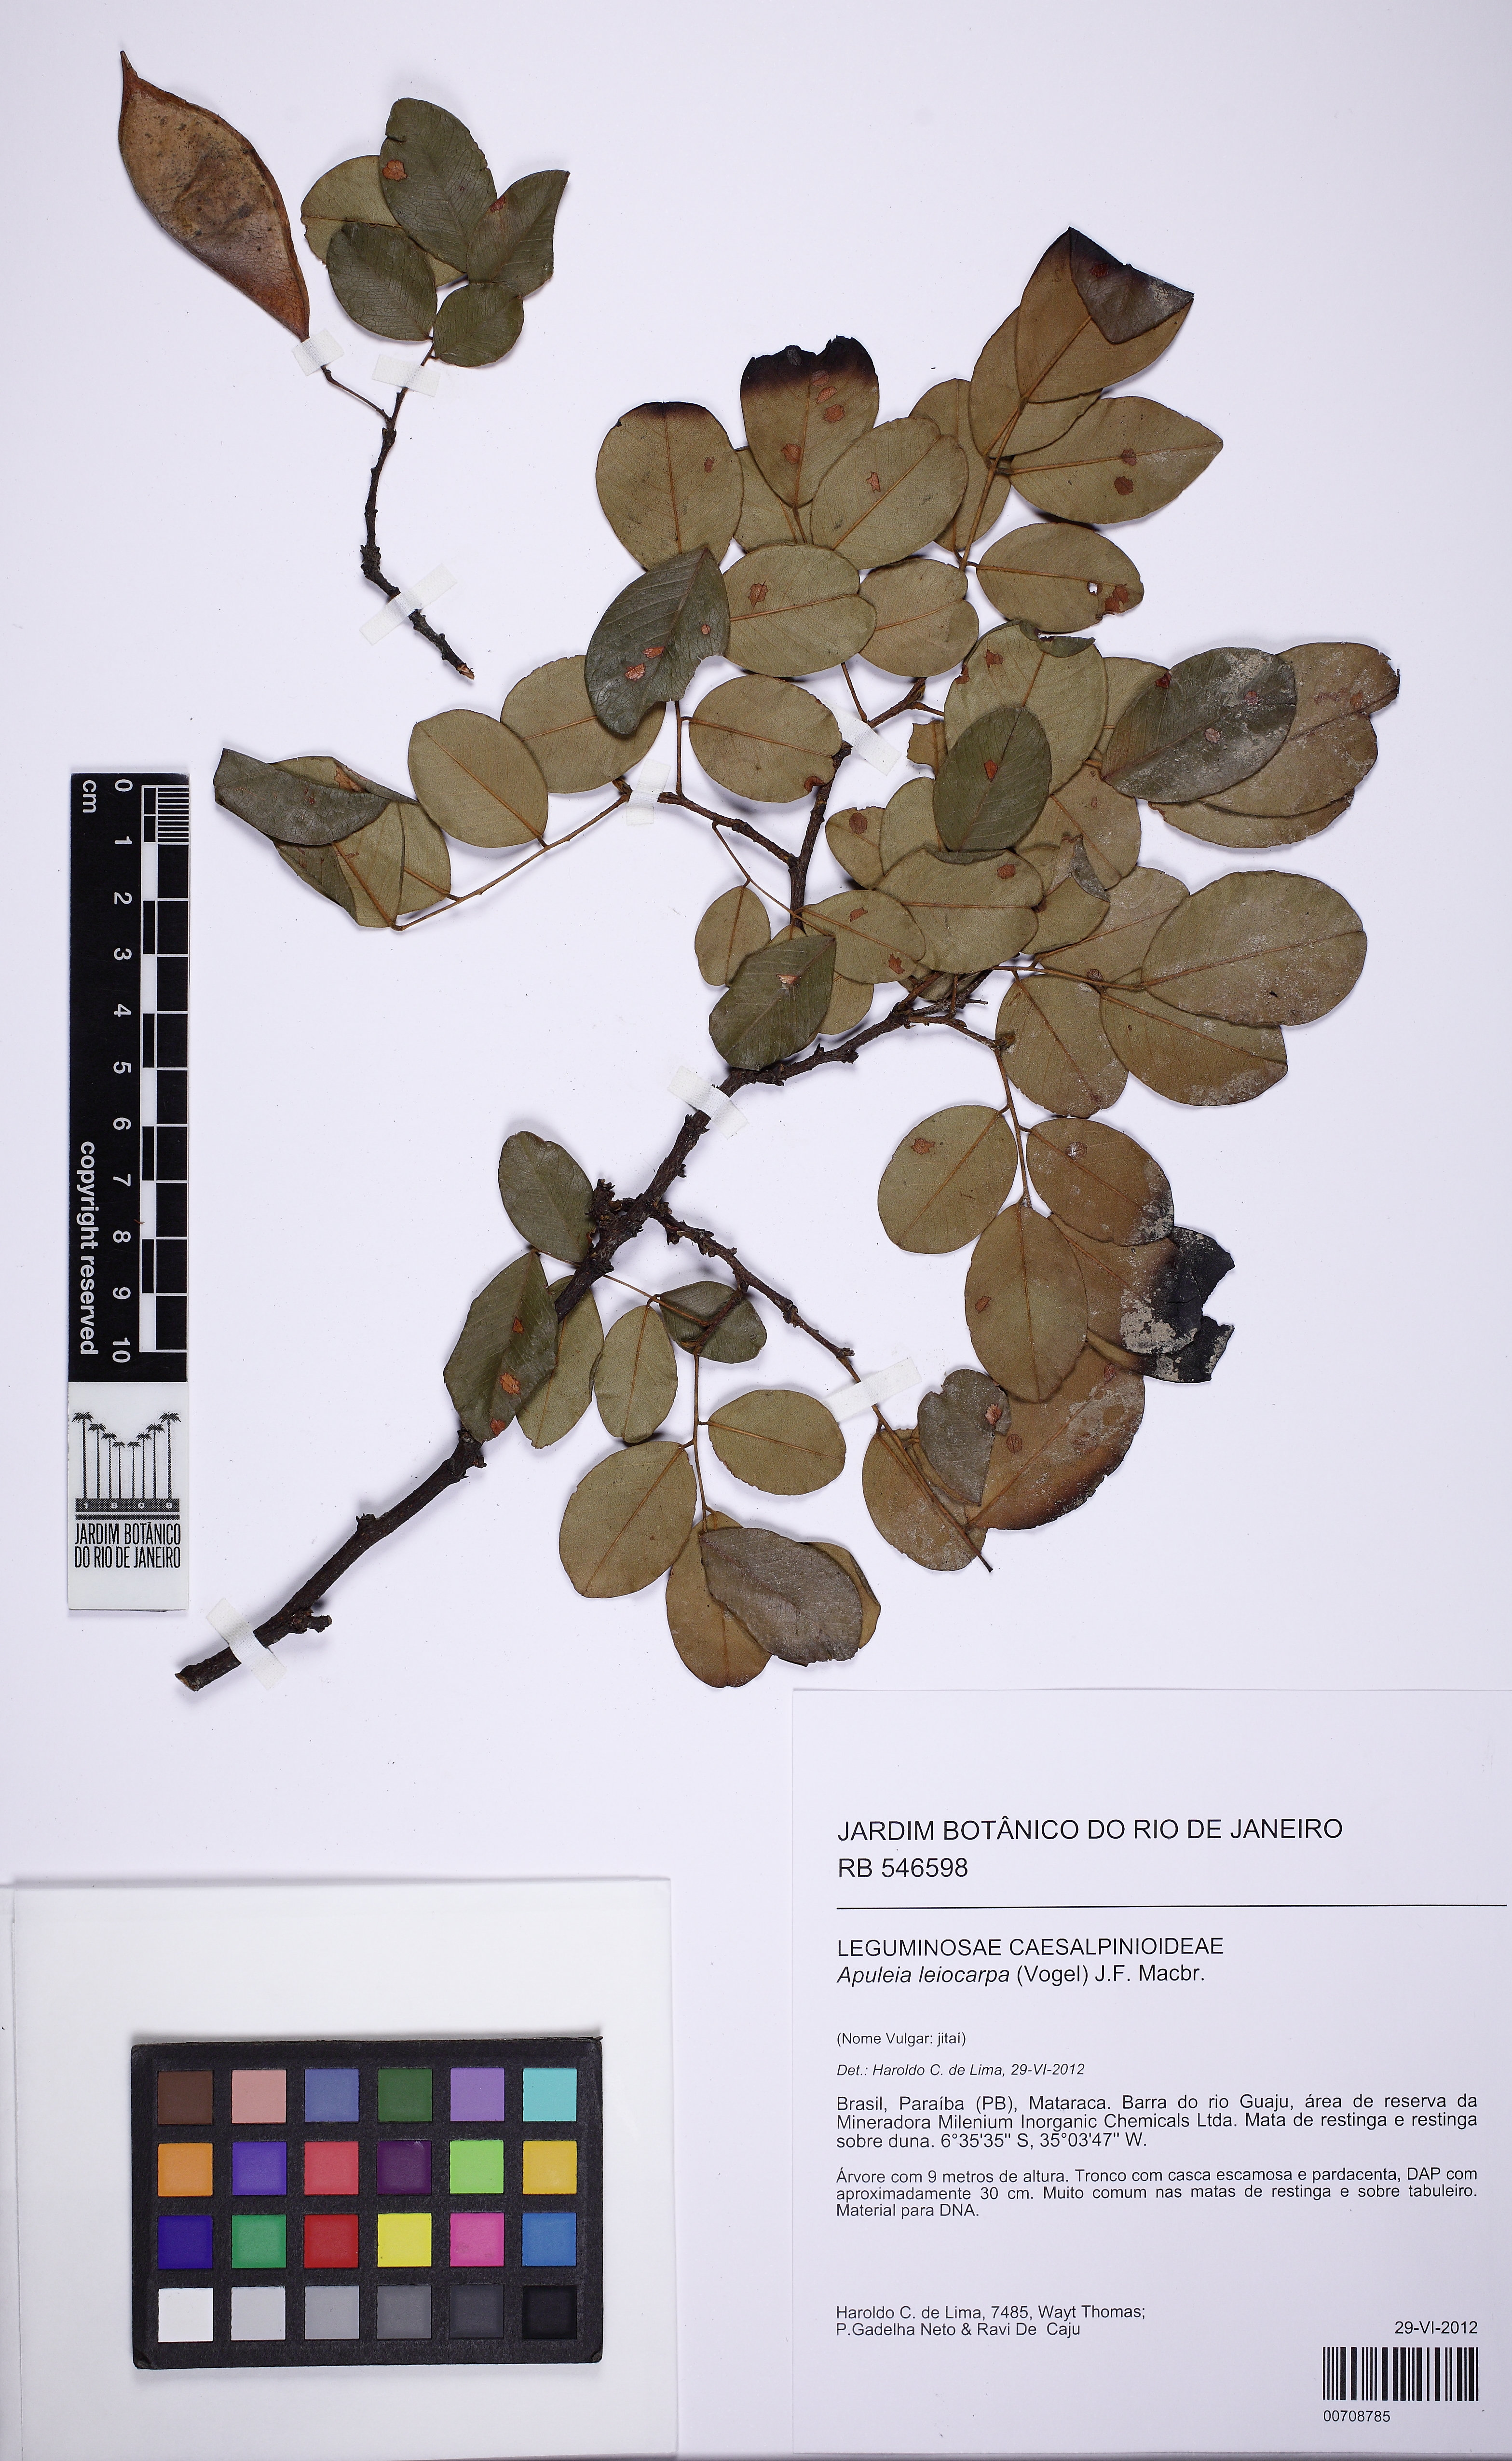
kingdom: Plantae
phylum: Tracheophyta
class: Magnoliopsida
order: Fabales
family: Fabaceae
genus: Apuleia
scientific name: Apuleia leiocarpa
